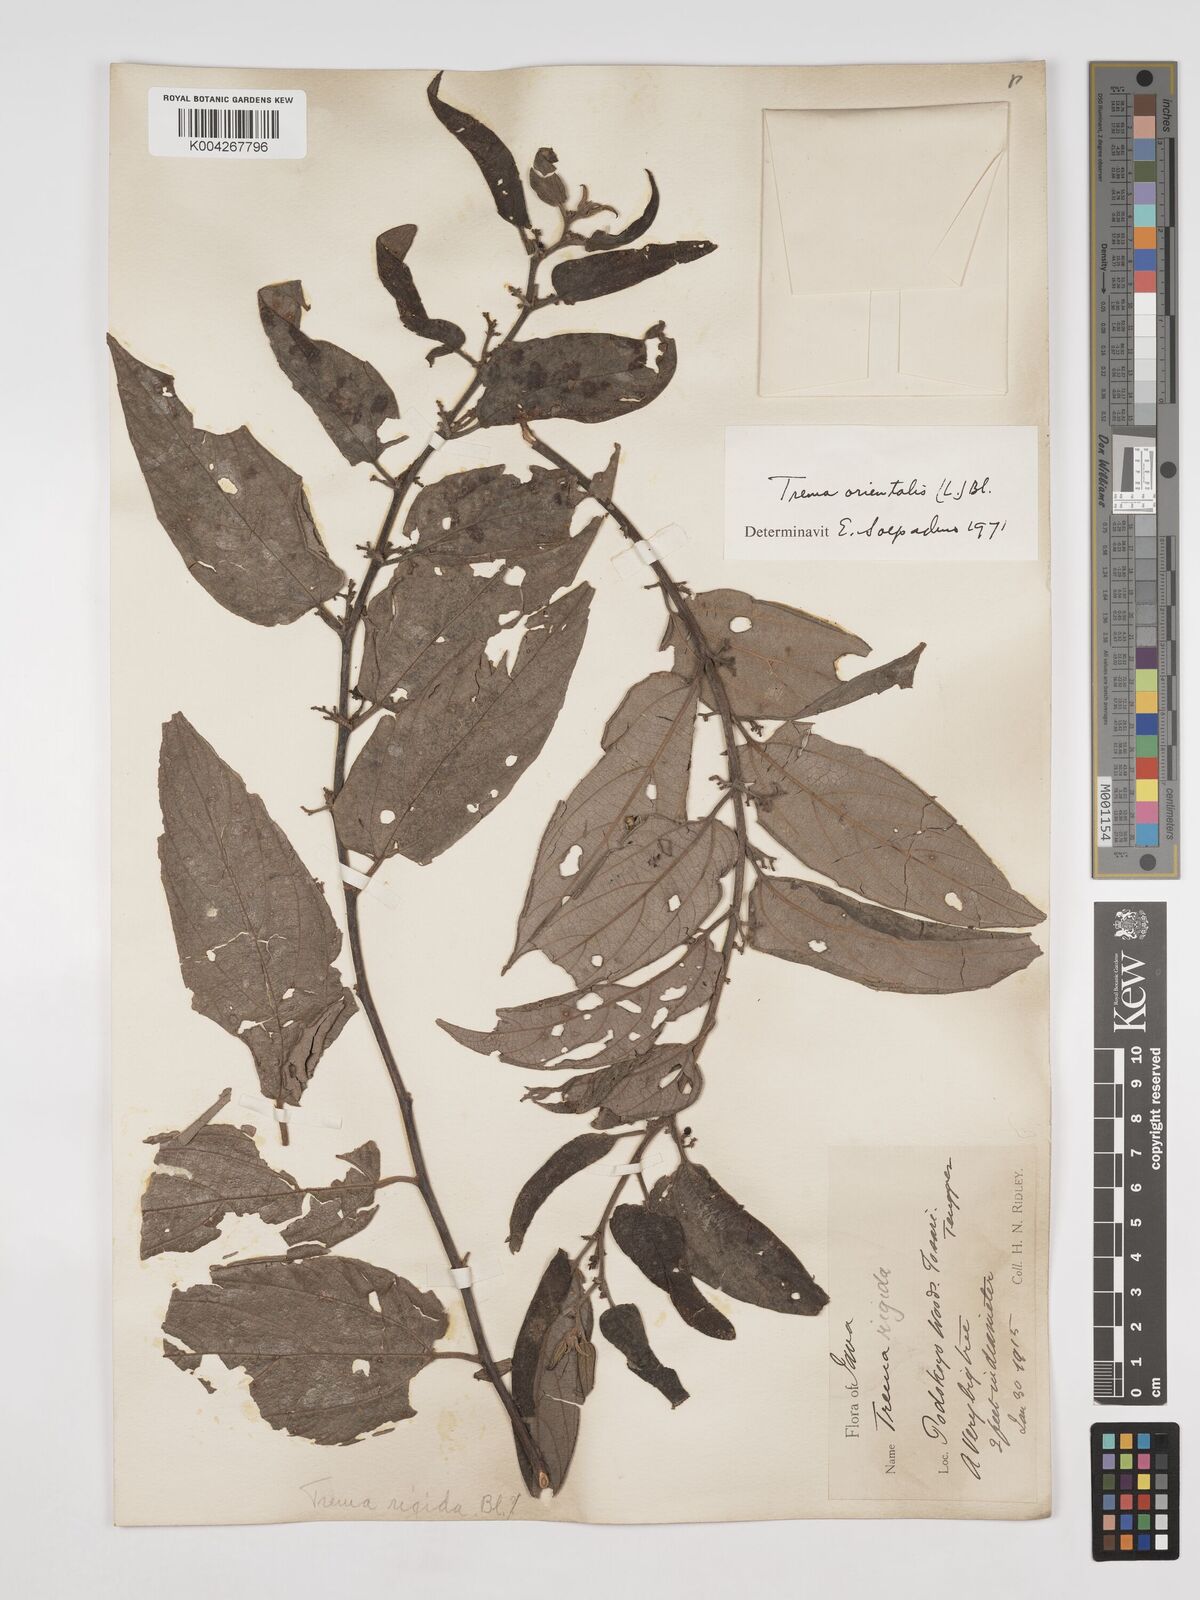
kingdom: Plantae
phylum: Tracheophyta
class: Magnoliopsida
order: Rosales
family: Cannabaceae
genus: Trema
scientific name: Trema orientale
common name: Indian charcoal tree
